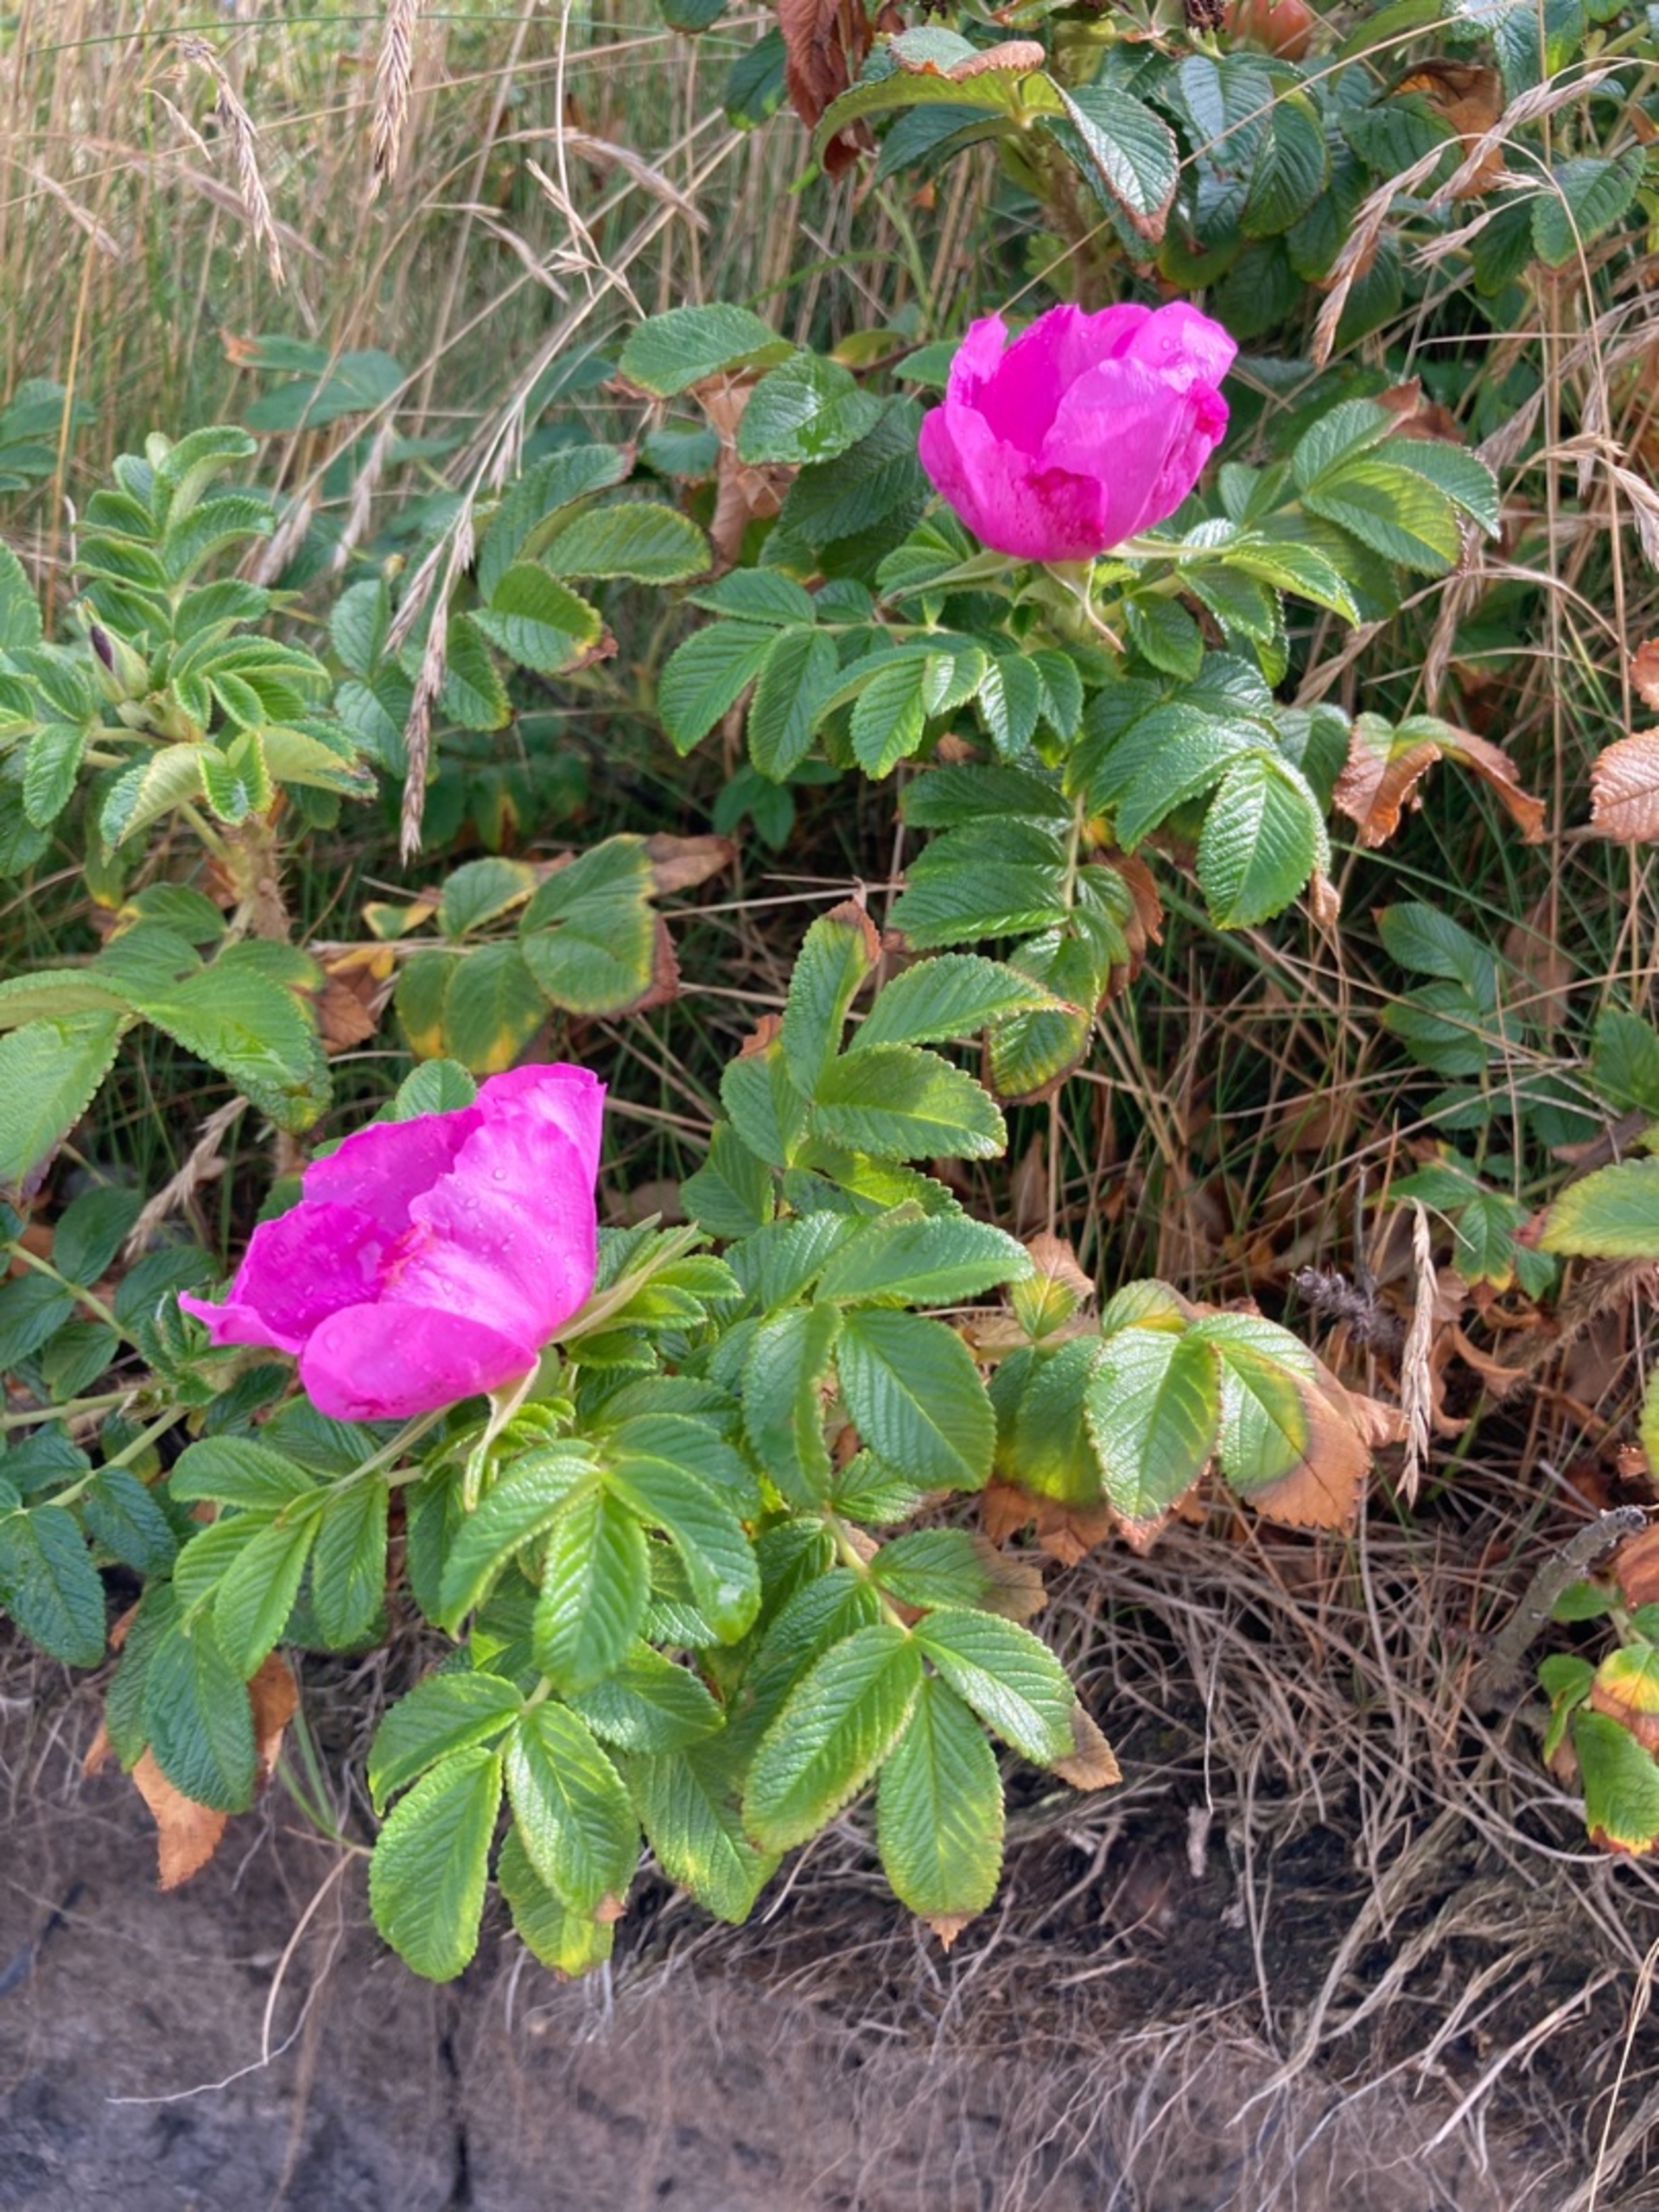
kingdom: Plantae
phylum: Tracheophyta
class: Magnoliopsida
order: Rosales
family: Rosaceae
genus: Rosa
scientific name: Rosa rugosa
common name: Rynket rose
